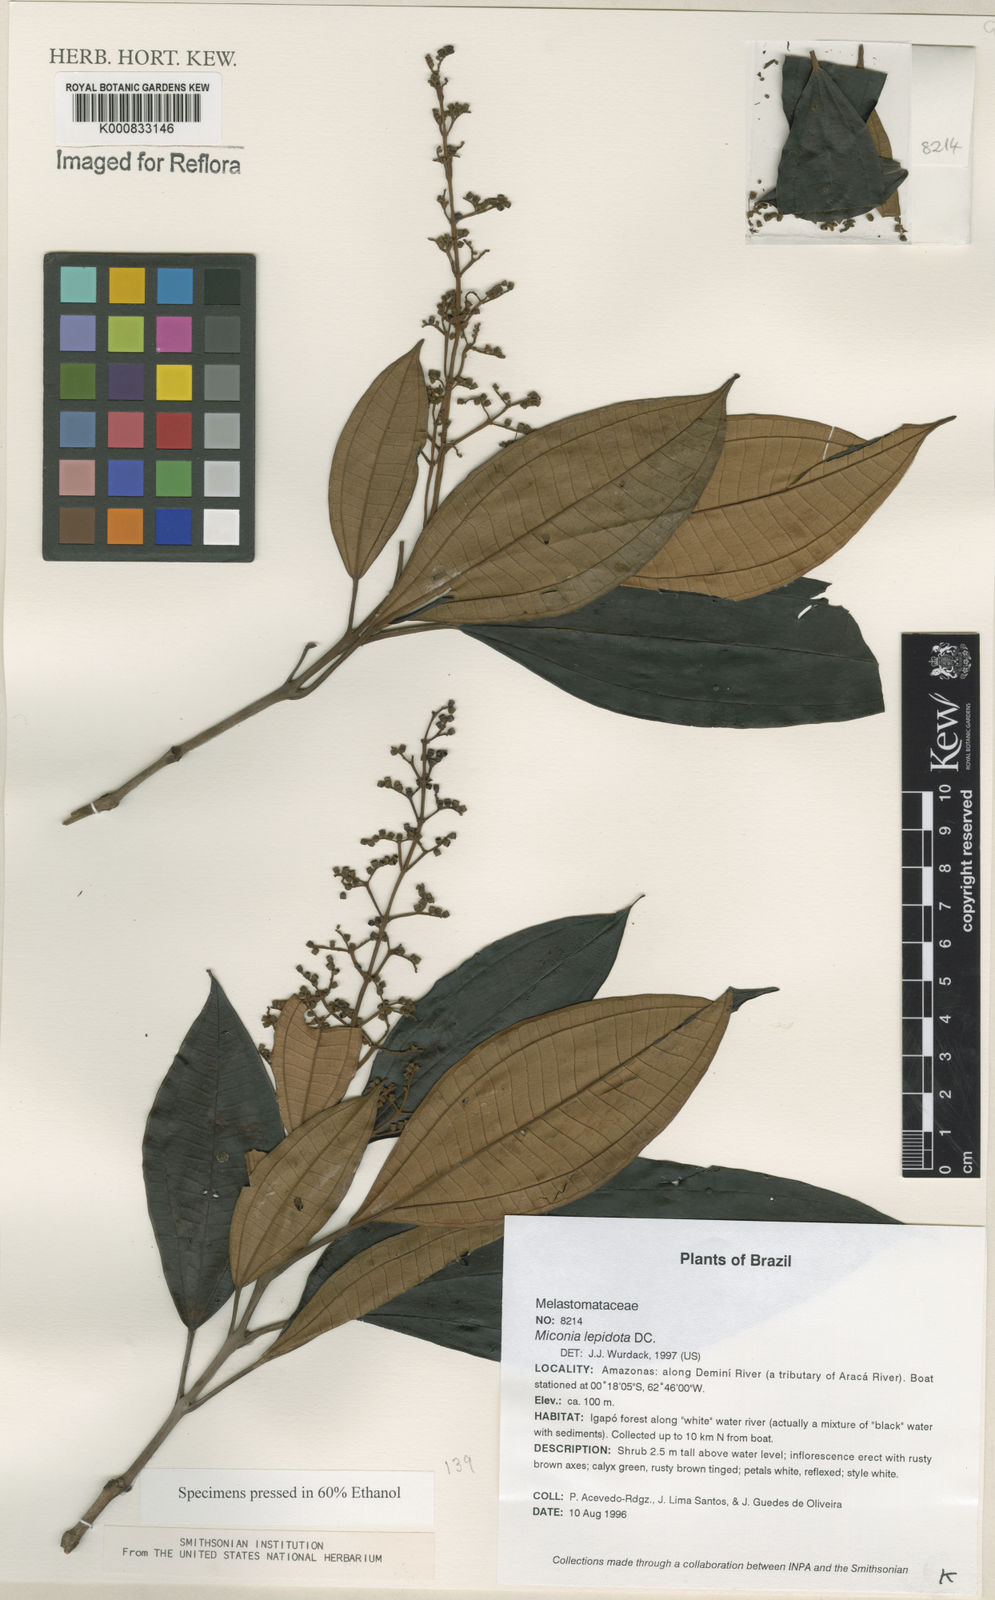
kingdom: Plantae
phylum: Tracheophyta
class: Magnoliopsida
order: Myrtales
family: Melastomataceae
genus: Miconia
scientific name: Miconia lepidota
